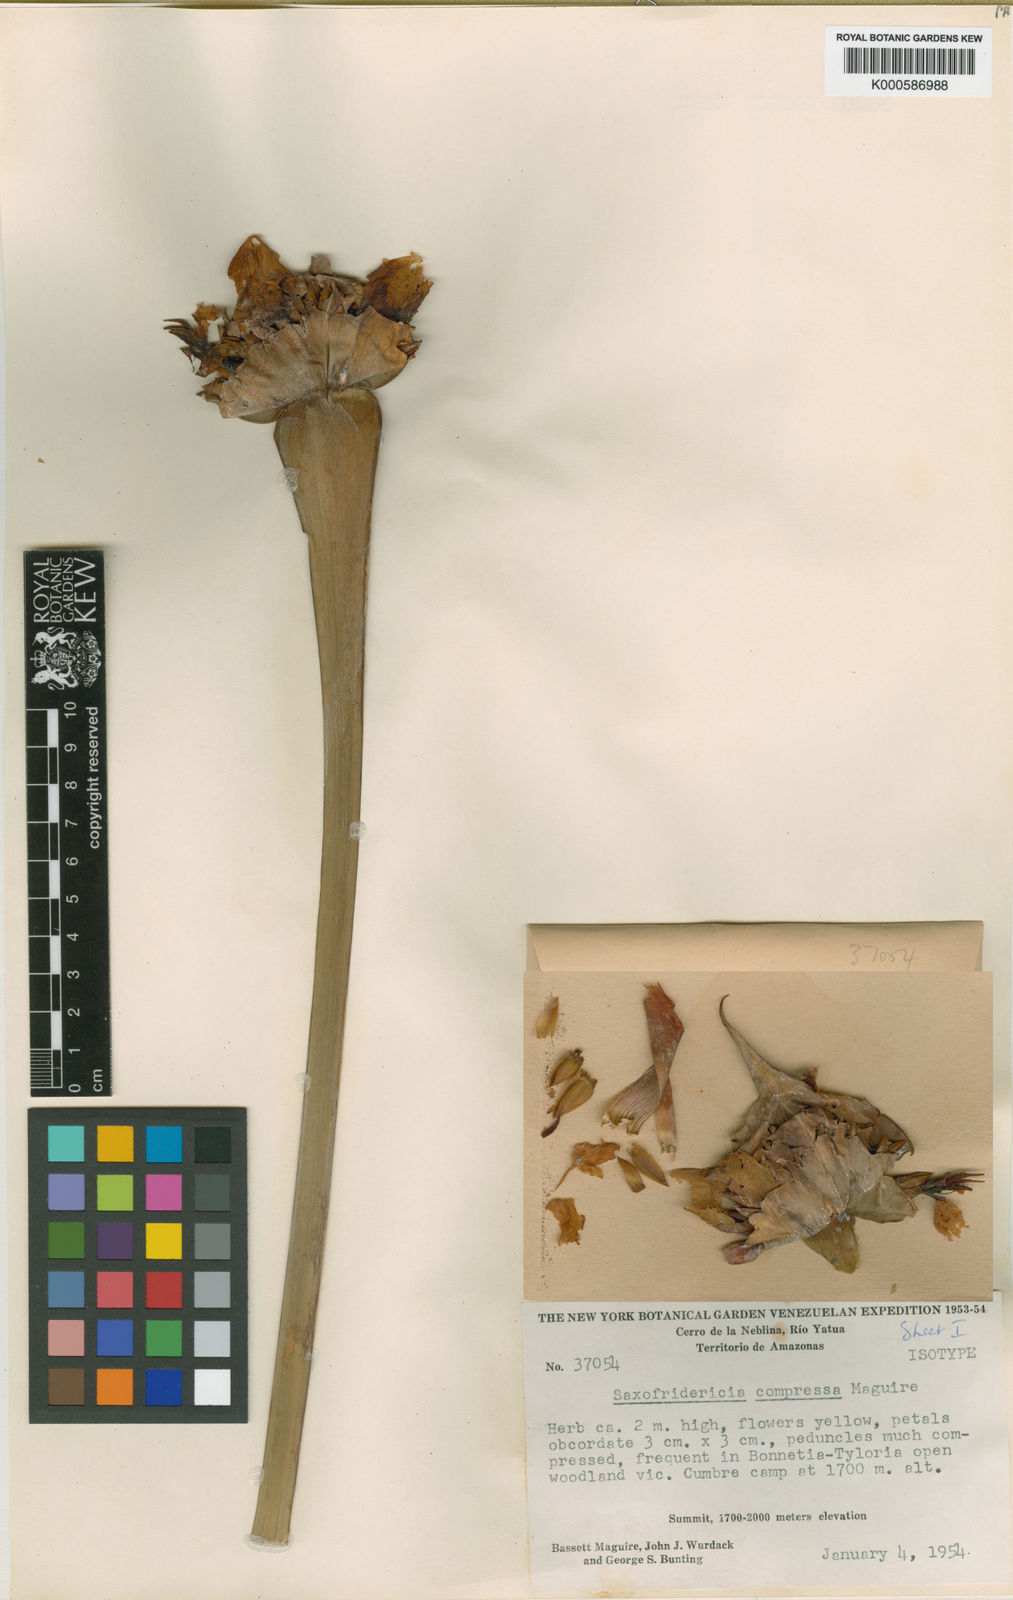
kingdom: Plantae
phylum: Tracheophyta
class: Liliopsida
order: Poales
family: Rapateaceae
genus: Saxofridericia
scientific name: Saxofridericia compressa
